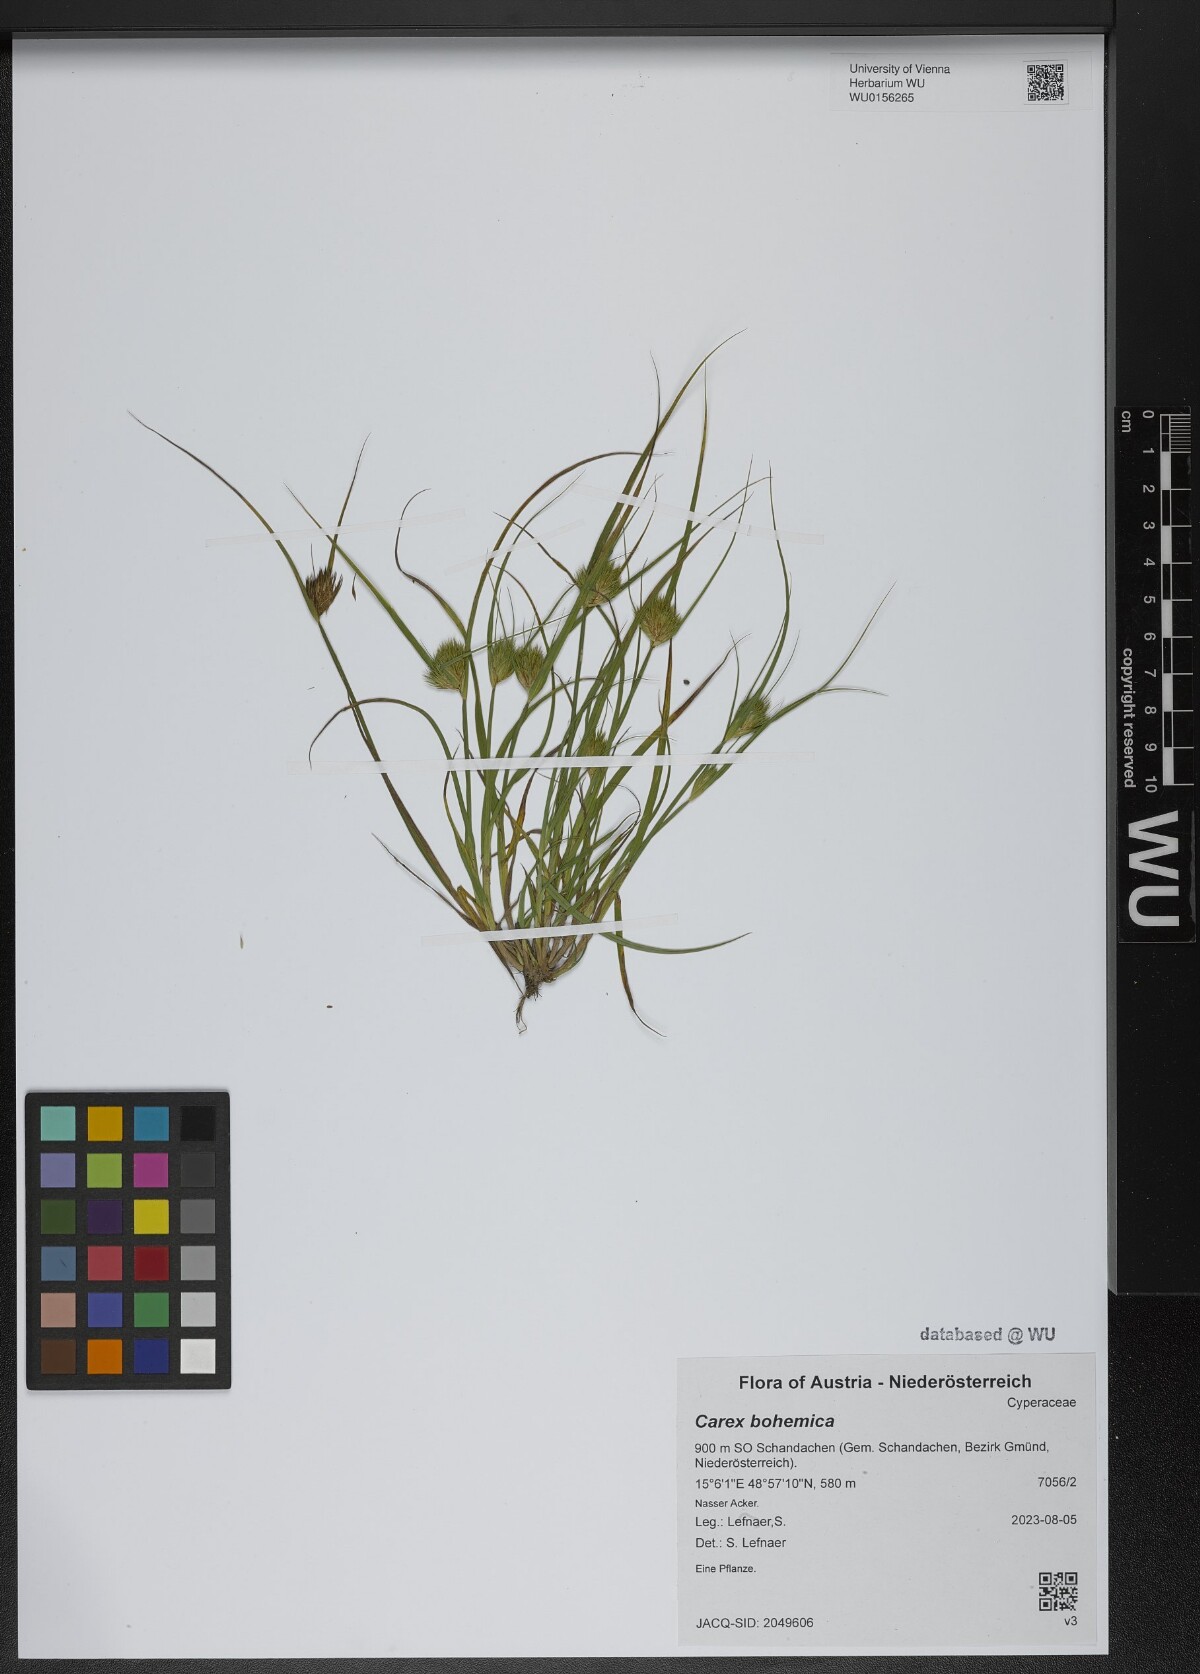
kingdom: Plantae
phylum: Tracheophyta
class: Liliopsida
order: Poales
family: Cyperaceae
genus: Carex
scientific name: Carex bohemica
